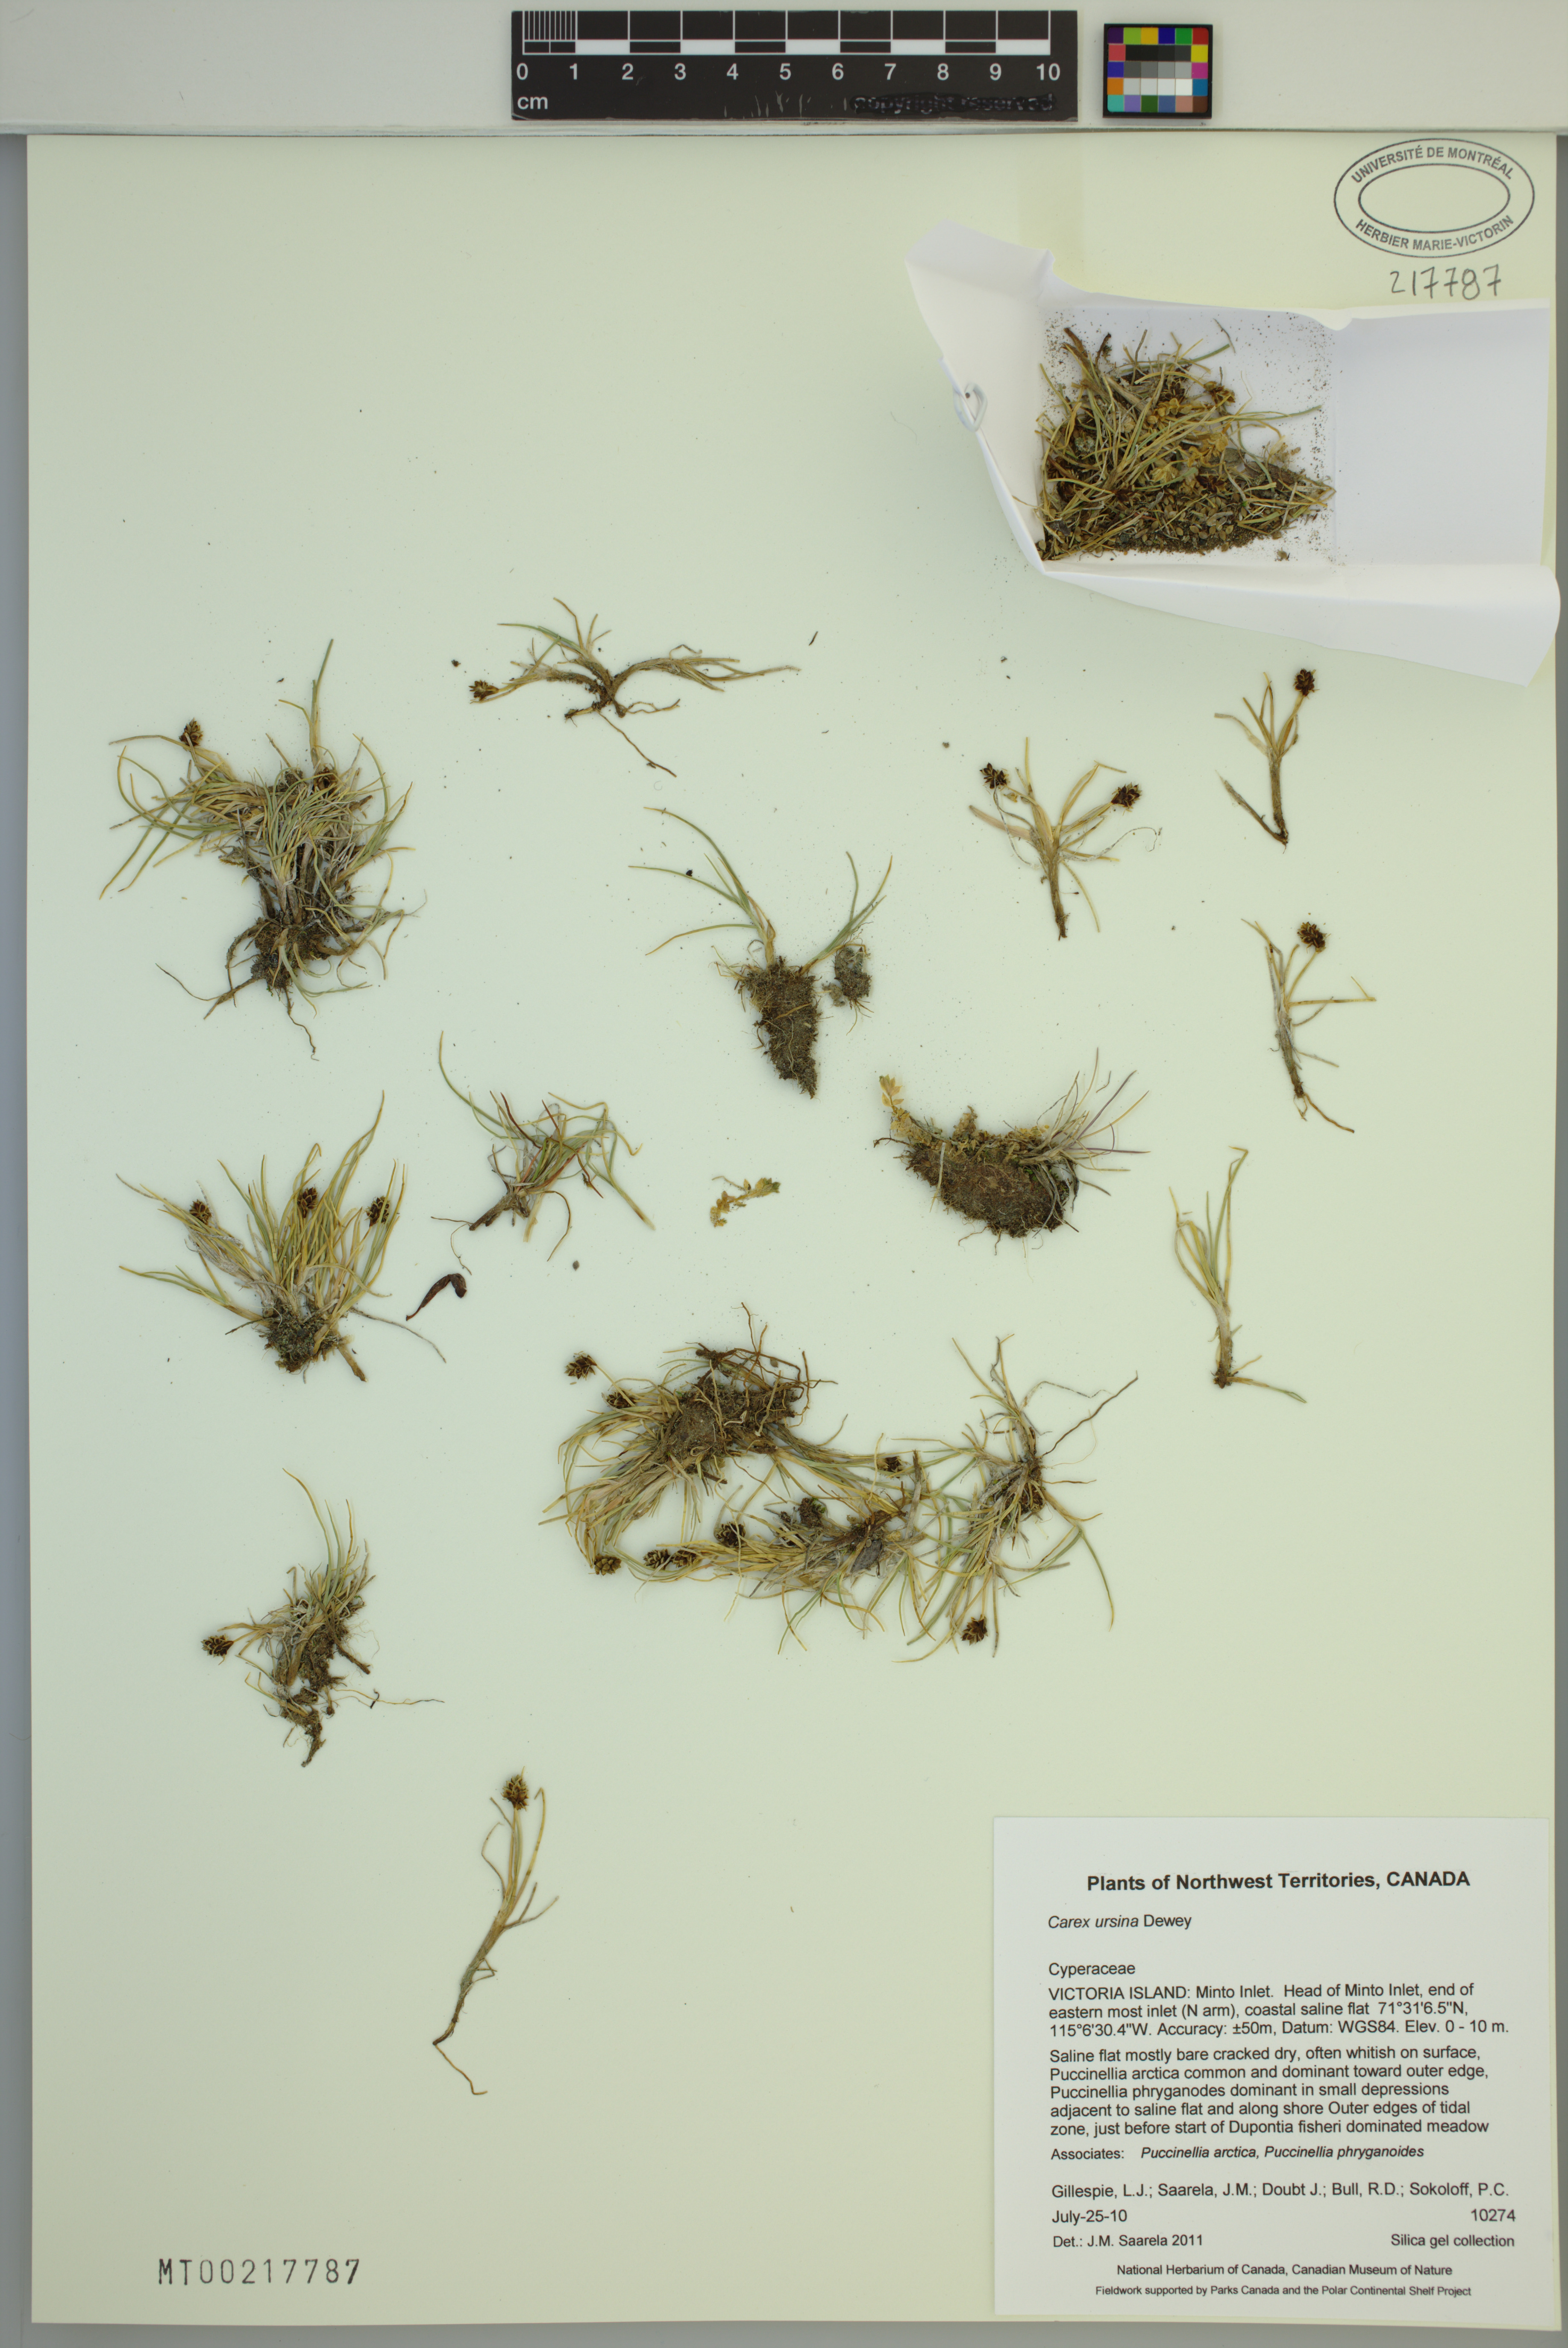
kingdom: Plantae
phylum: Tracheophyta
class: Liliopsida
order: Poales
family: Cyperaceae
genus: Carex
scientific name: Carex ursina
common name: Bear sedge
